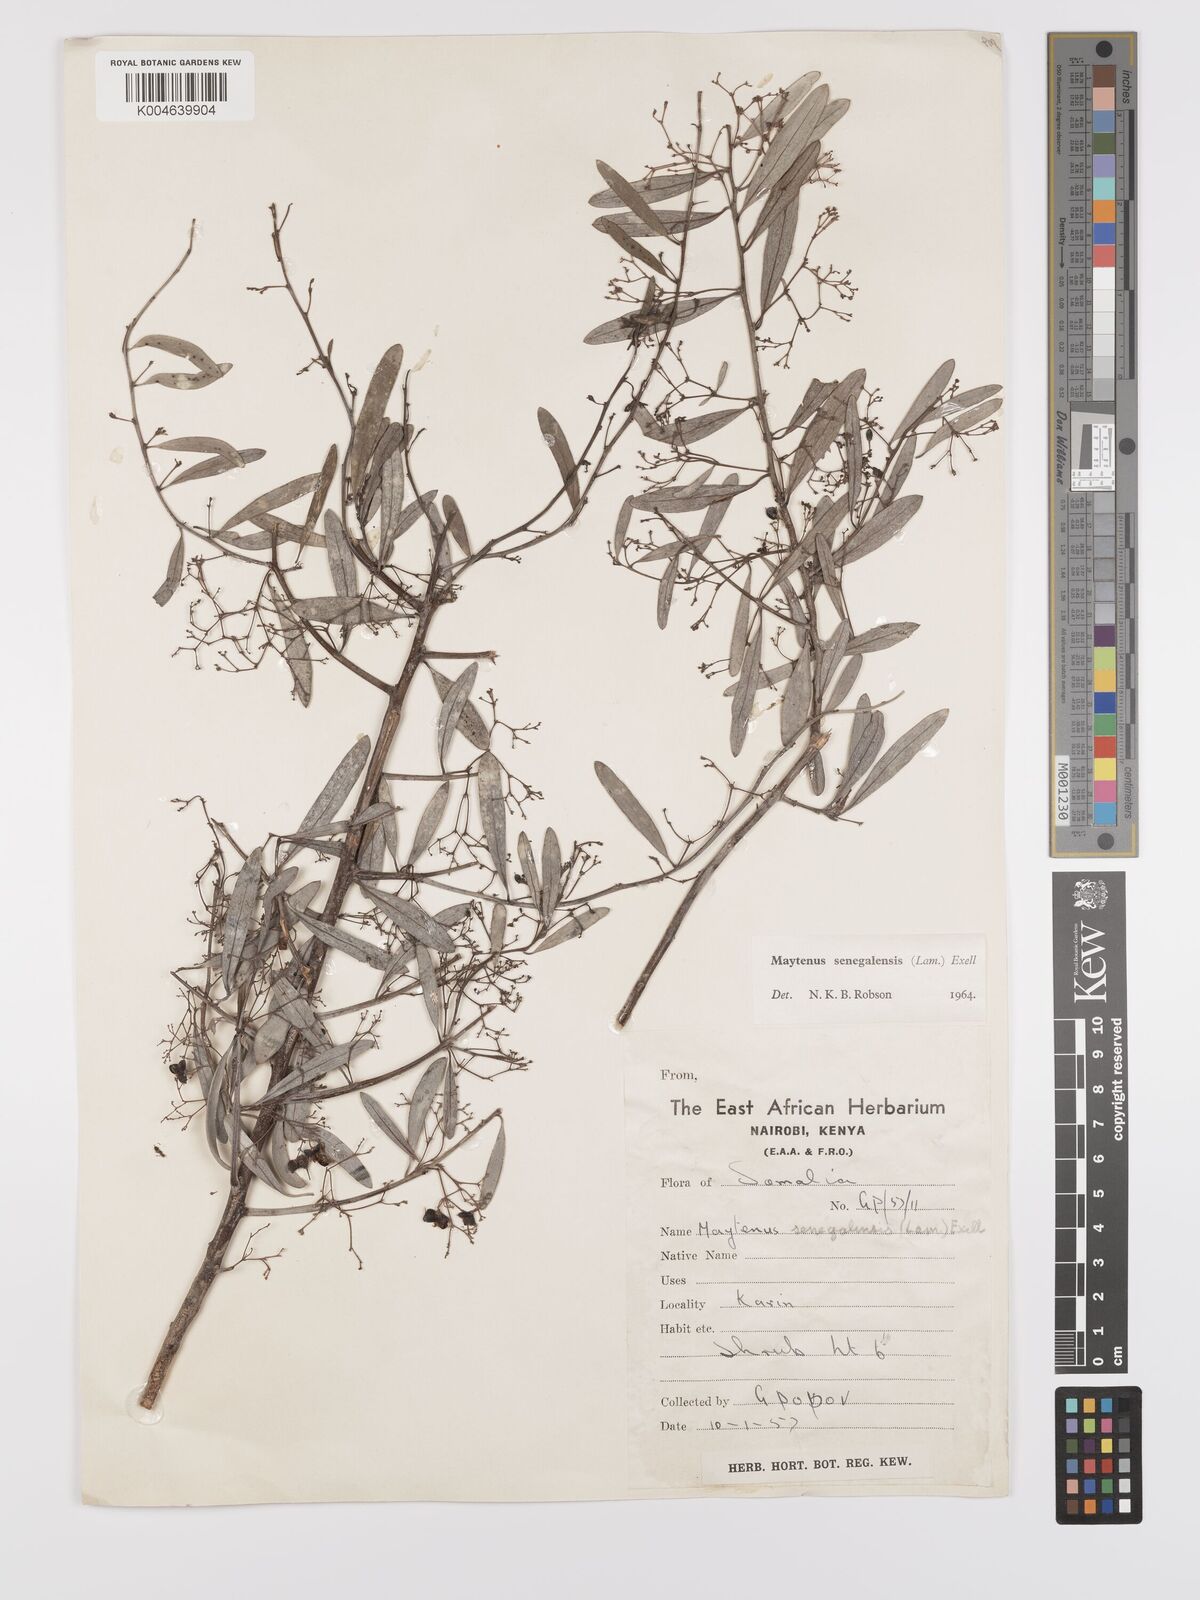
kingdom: Plantae
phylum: Tracheophyta
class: Magnoliopsida
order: Celastrales
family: Celastraceae
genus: Gymnosporia
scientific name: Gymnosporia senegalensis
